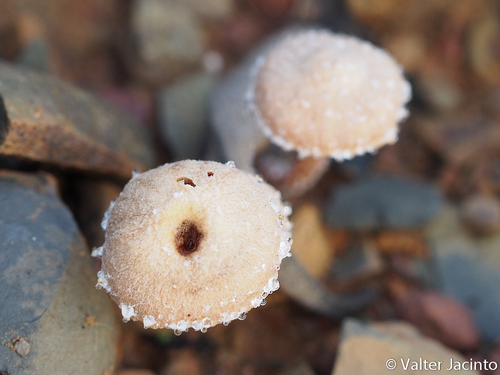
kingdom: Fungi
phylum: Basidiomycota
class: Agaricomycetes
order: Agaricales
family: Tubariaceae
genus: Tubaria
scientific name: Tubaria conspersa
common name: Felted twiglet
